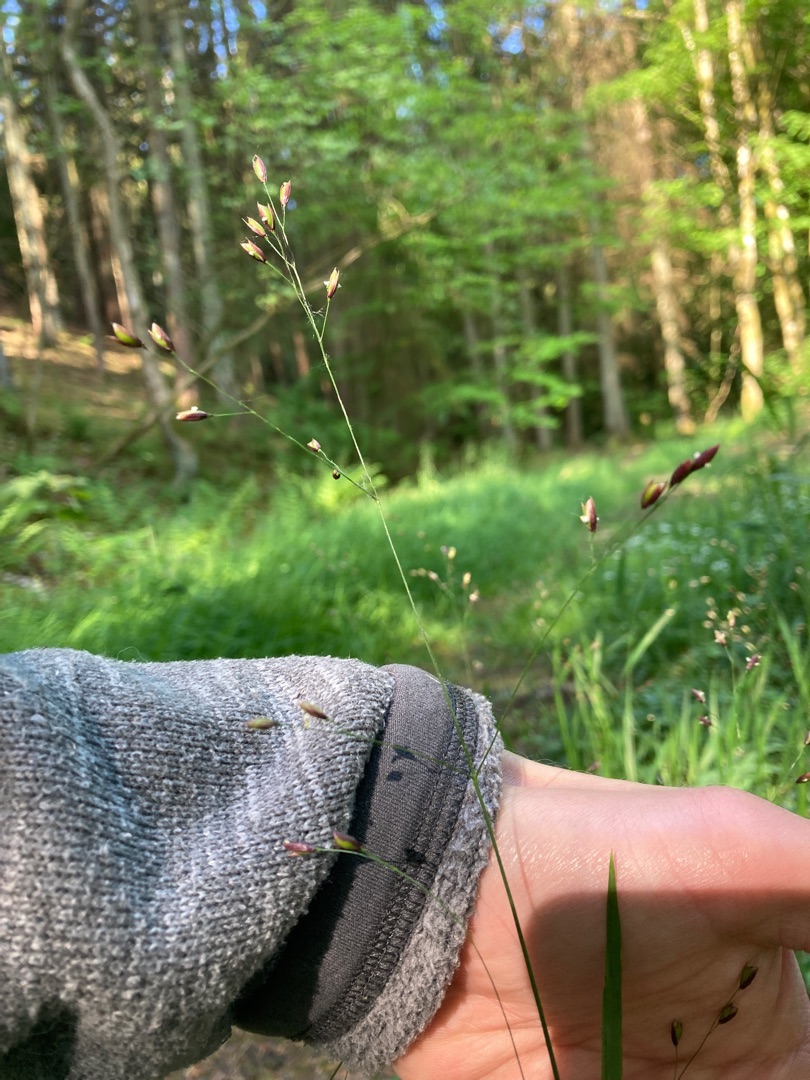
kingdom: Plantae
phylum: Tracheophyta
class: Liliopsida
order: Poales
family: Poaceae
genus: Melica
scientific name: Melica uniflora
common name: Enblomstret flitteraks
